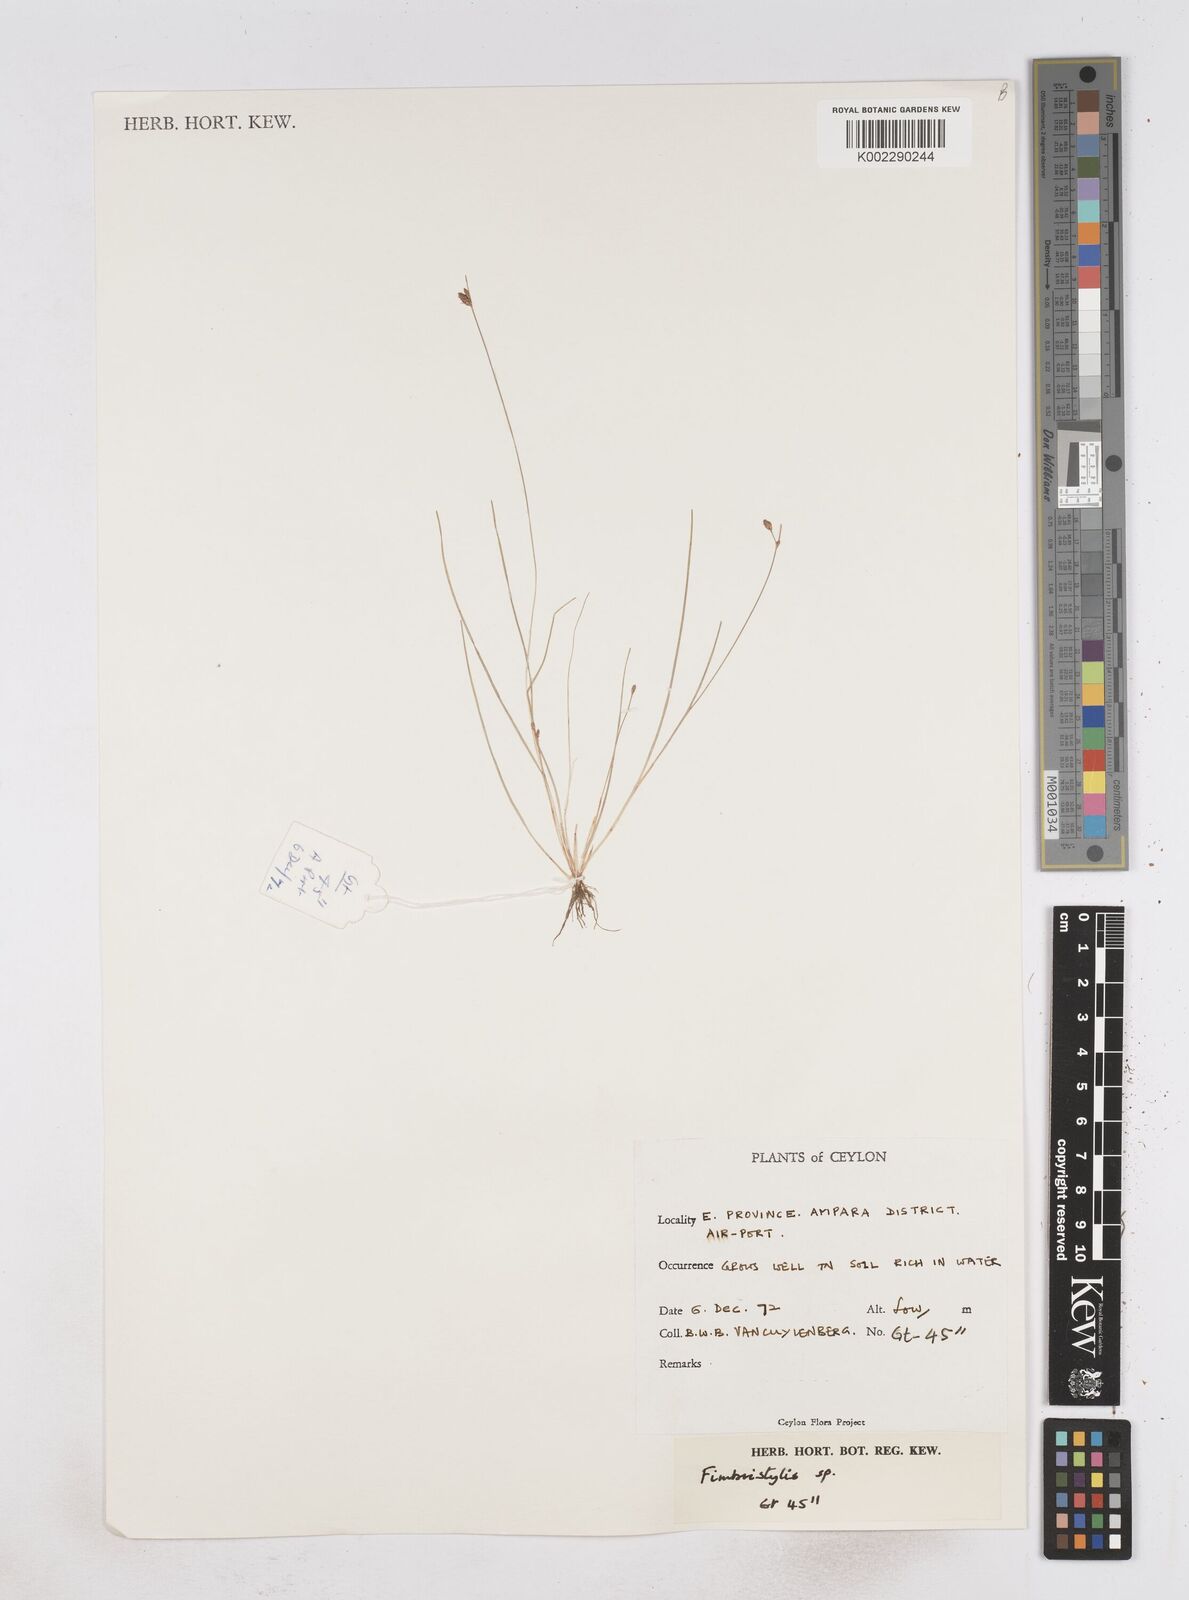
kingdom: Plantae
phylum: Tracheophyta
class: Liliopsida
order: Poales
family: Cyperaceae
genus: Fimbristylis
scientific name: Fimbristylis
